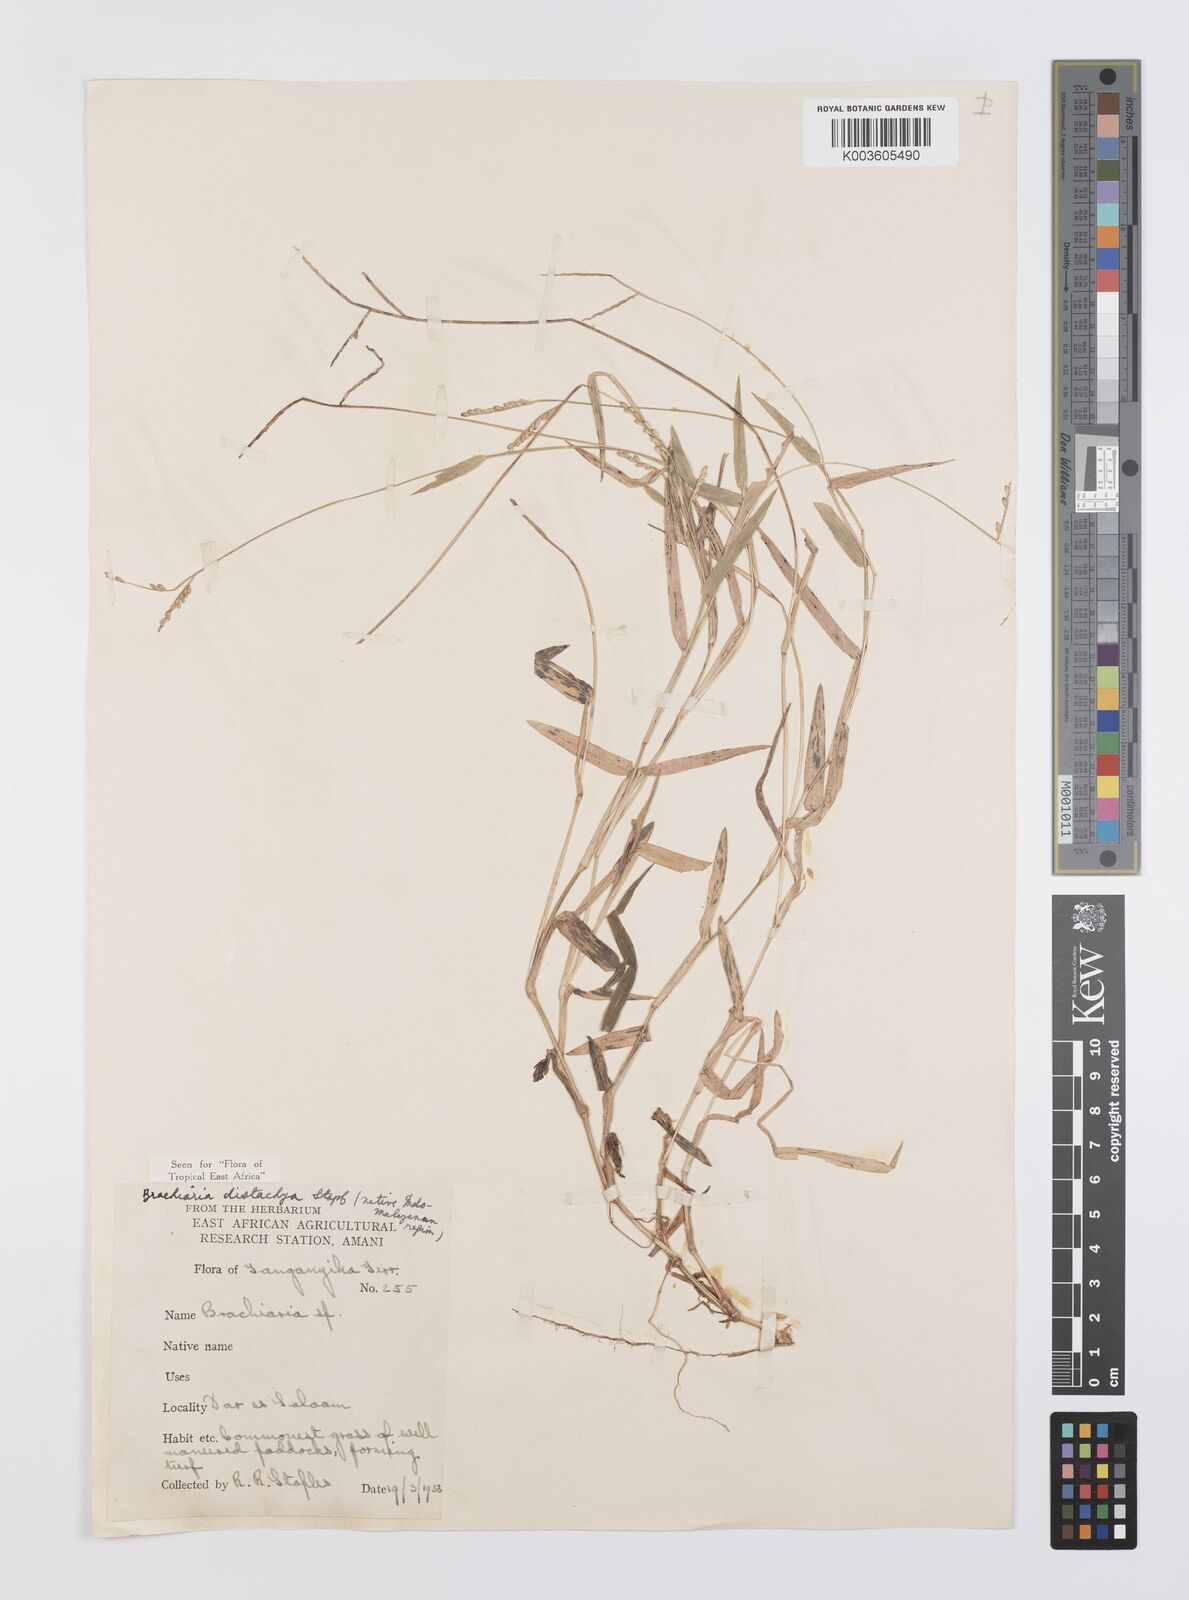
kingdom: Plantae
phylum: Tracheophyta
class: Liliopsida
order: Poales
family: Poaceae
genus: Urochloa
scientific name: Urochloa distachyos
